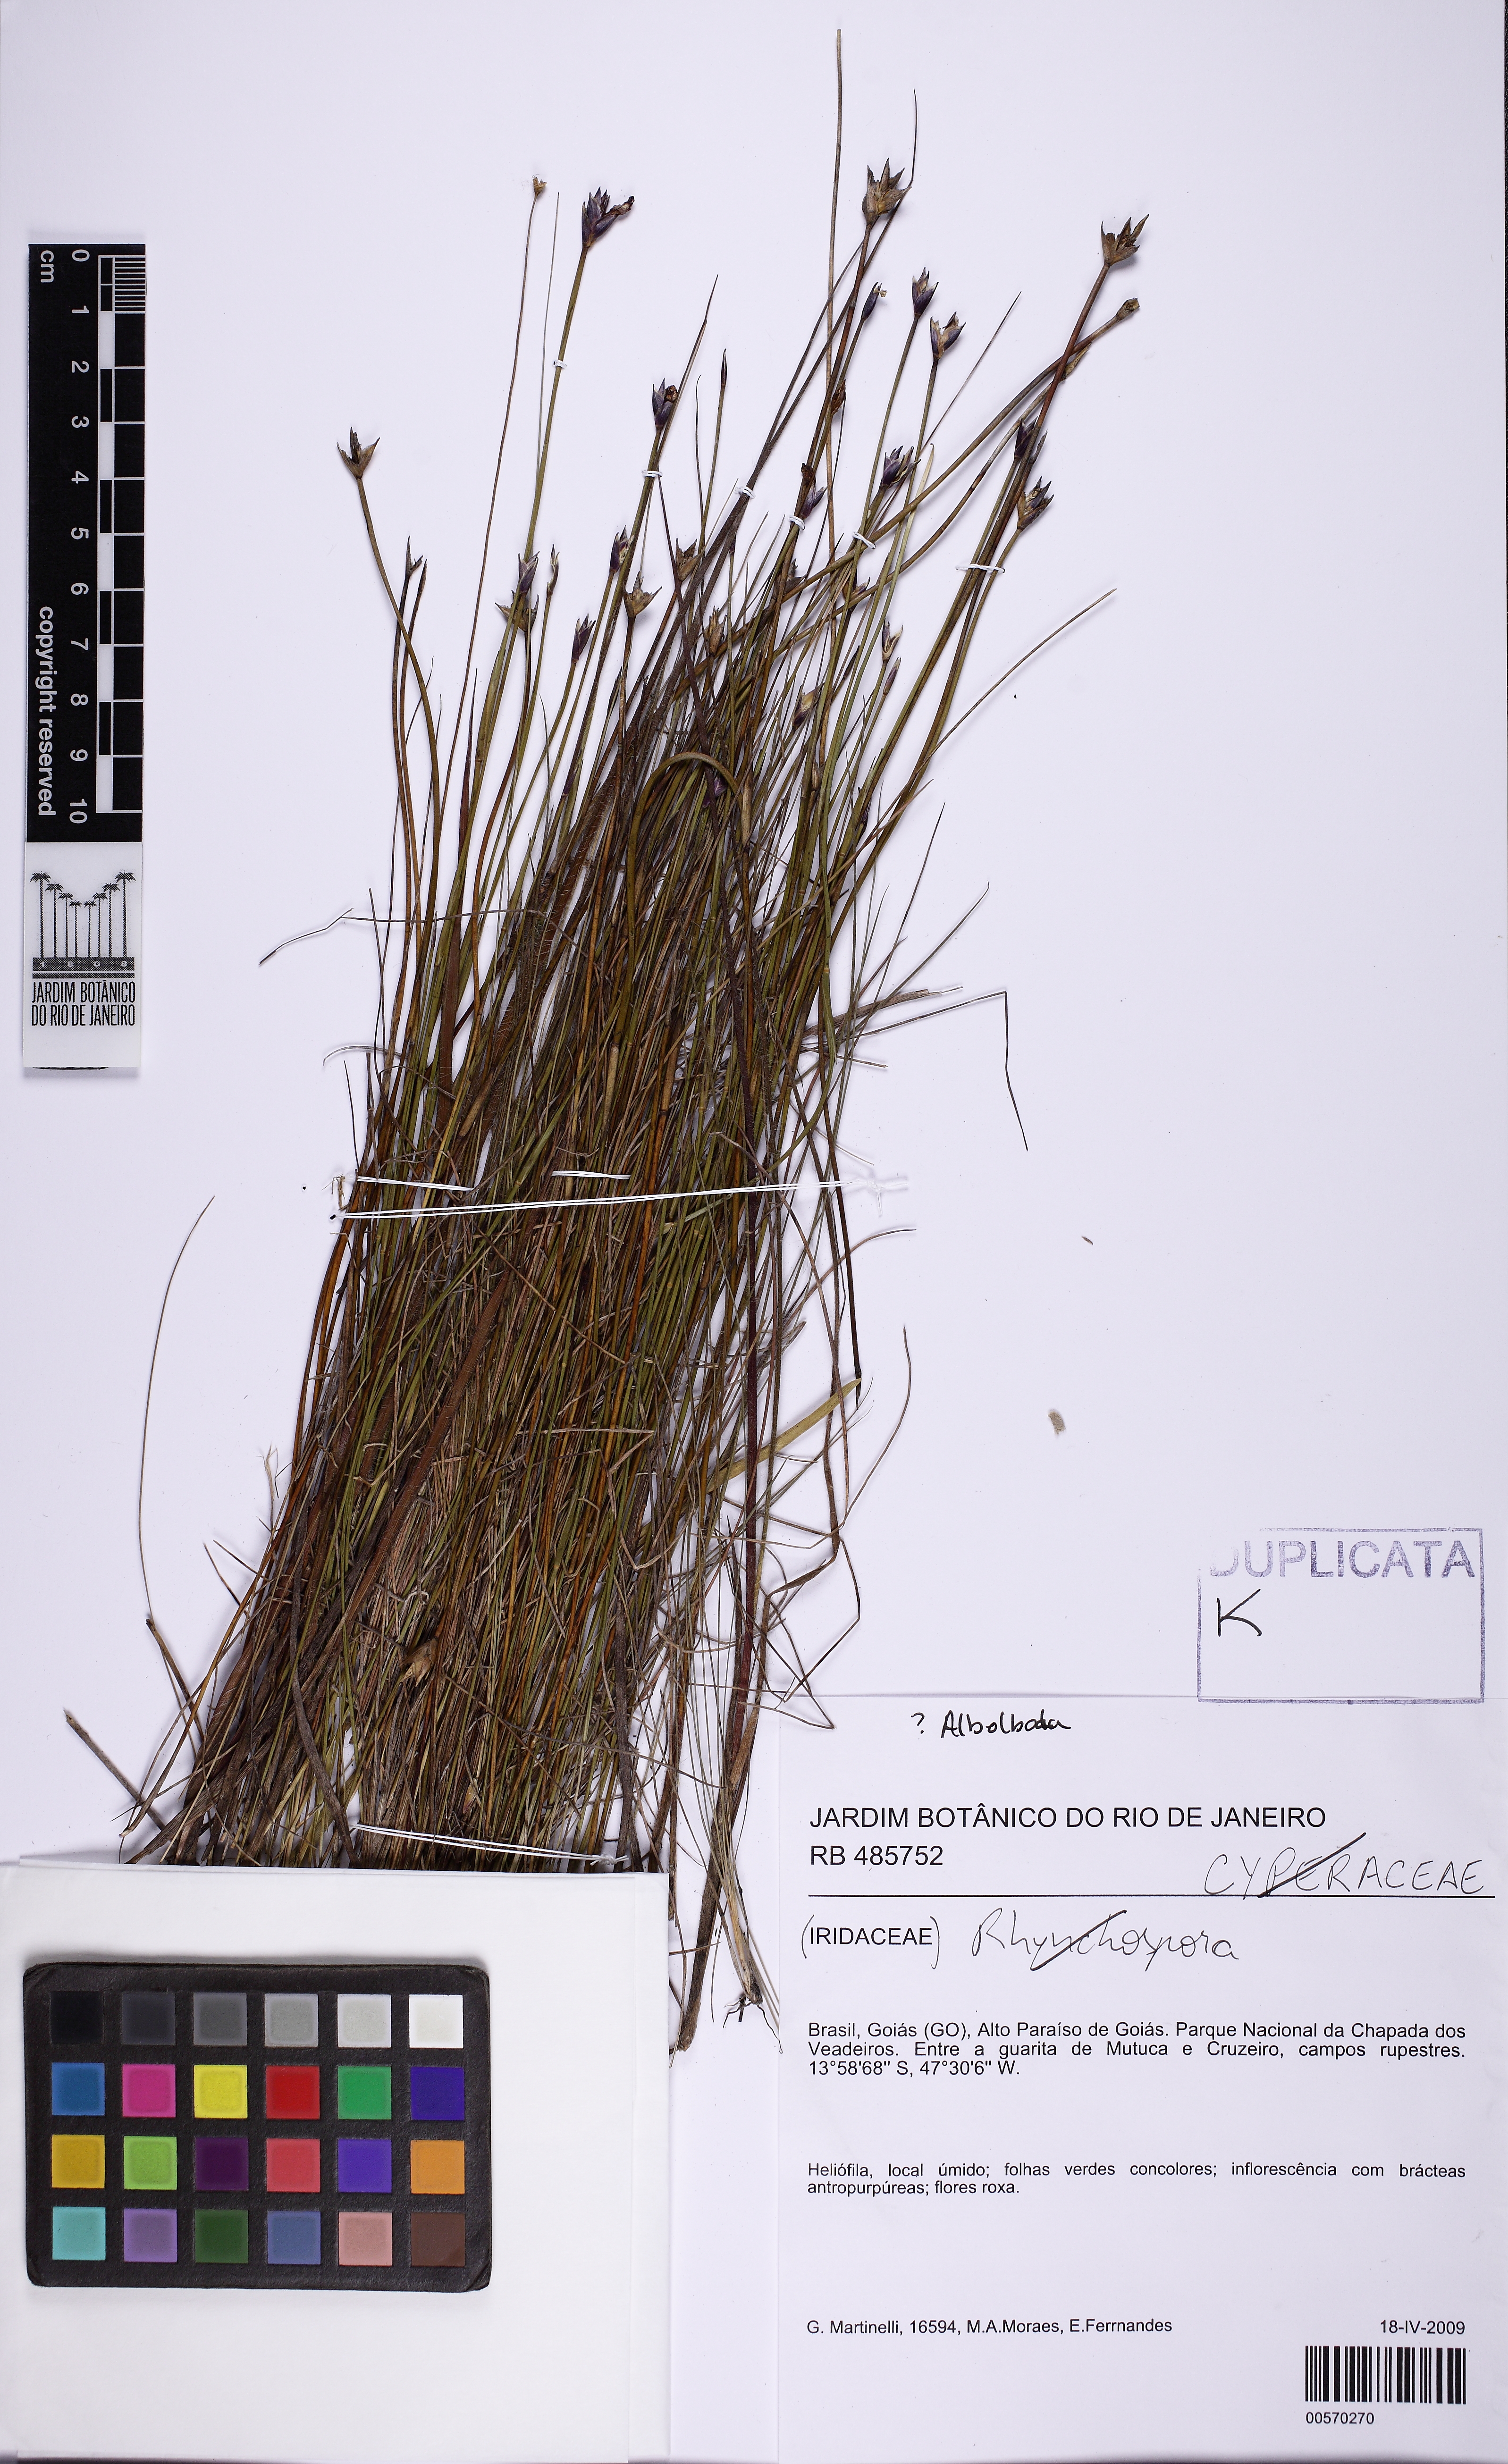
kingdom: Plantae
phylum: Tracheophyta
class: Liliopsida
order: Poales
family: Xyridaceae
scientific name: Xyridaceae
